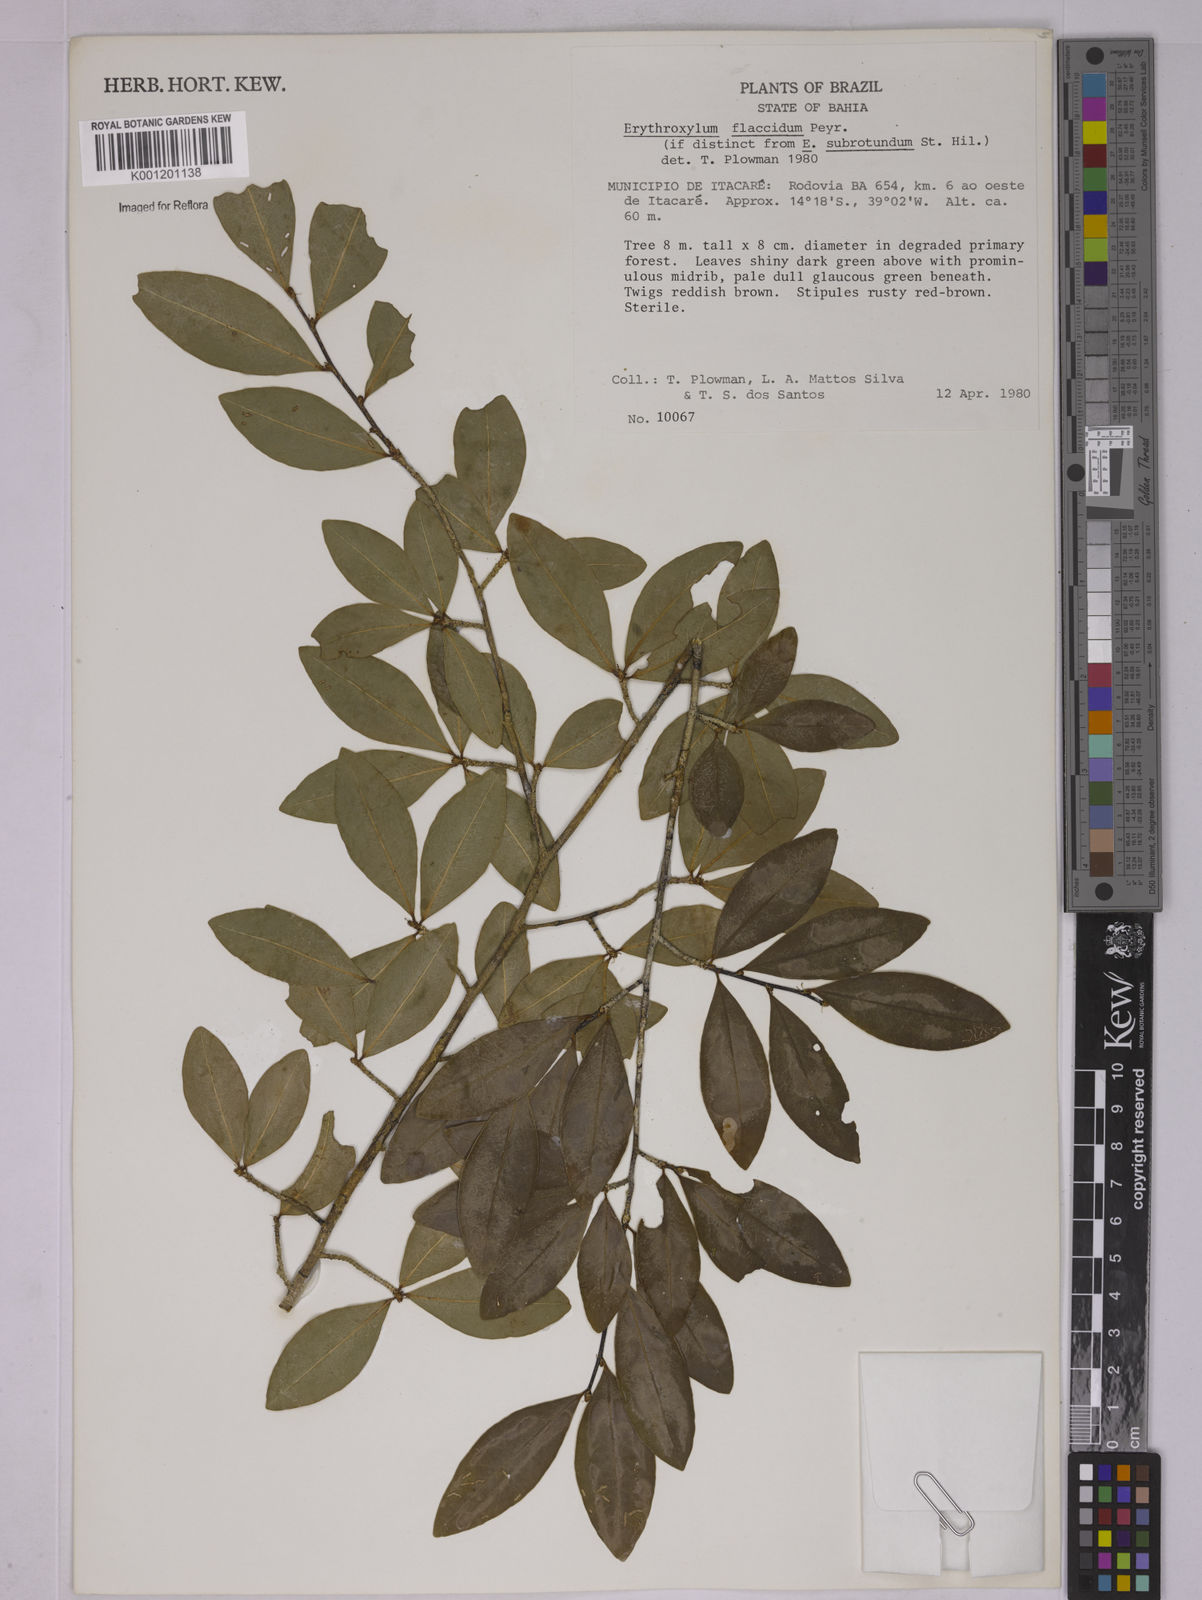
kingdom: Plantae
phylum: Tracheophyta
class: Magnoliopsida
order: Malpighiales
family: Erythroxylaceae
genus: Erythroxylum
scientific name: Erythroxylum flaccidum
